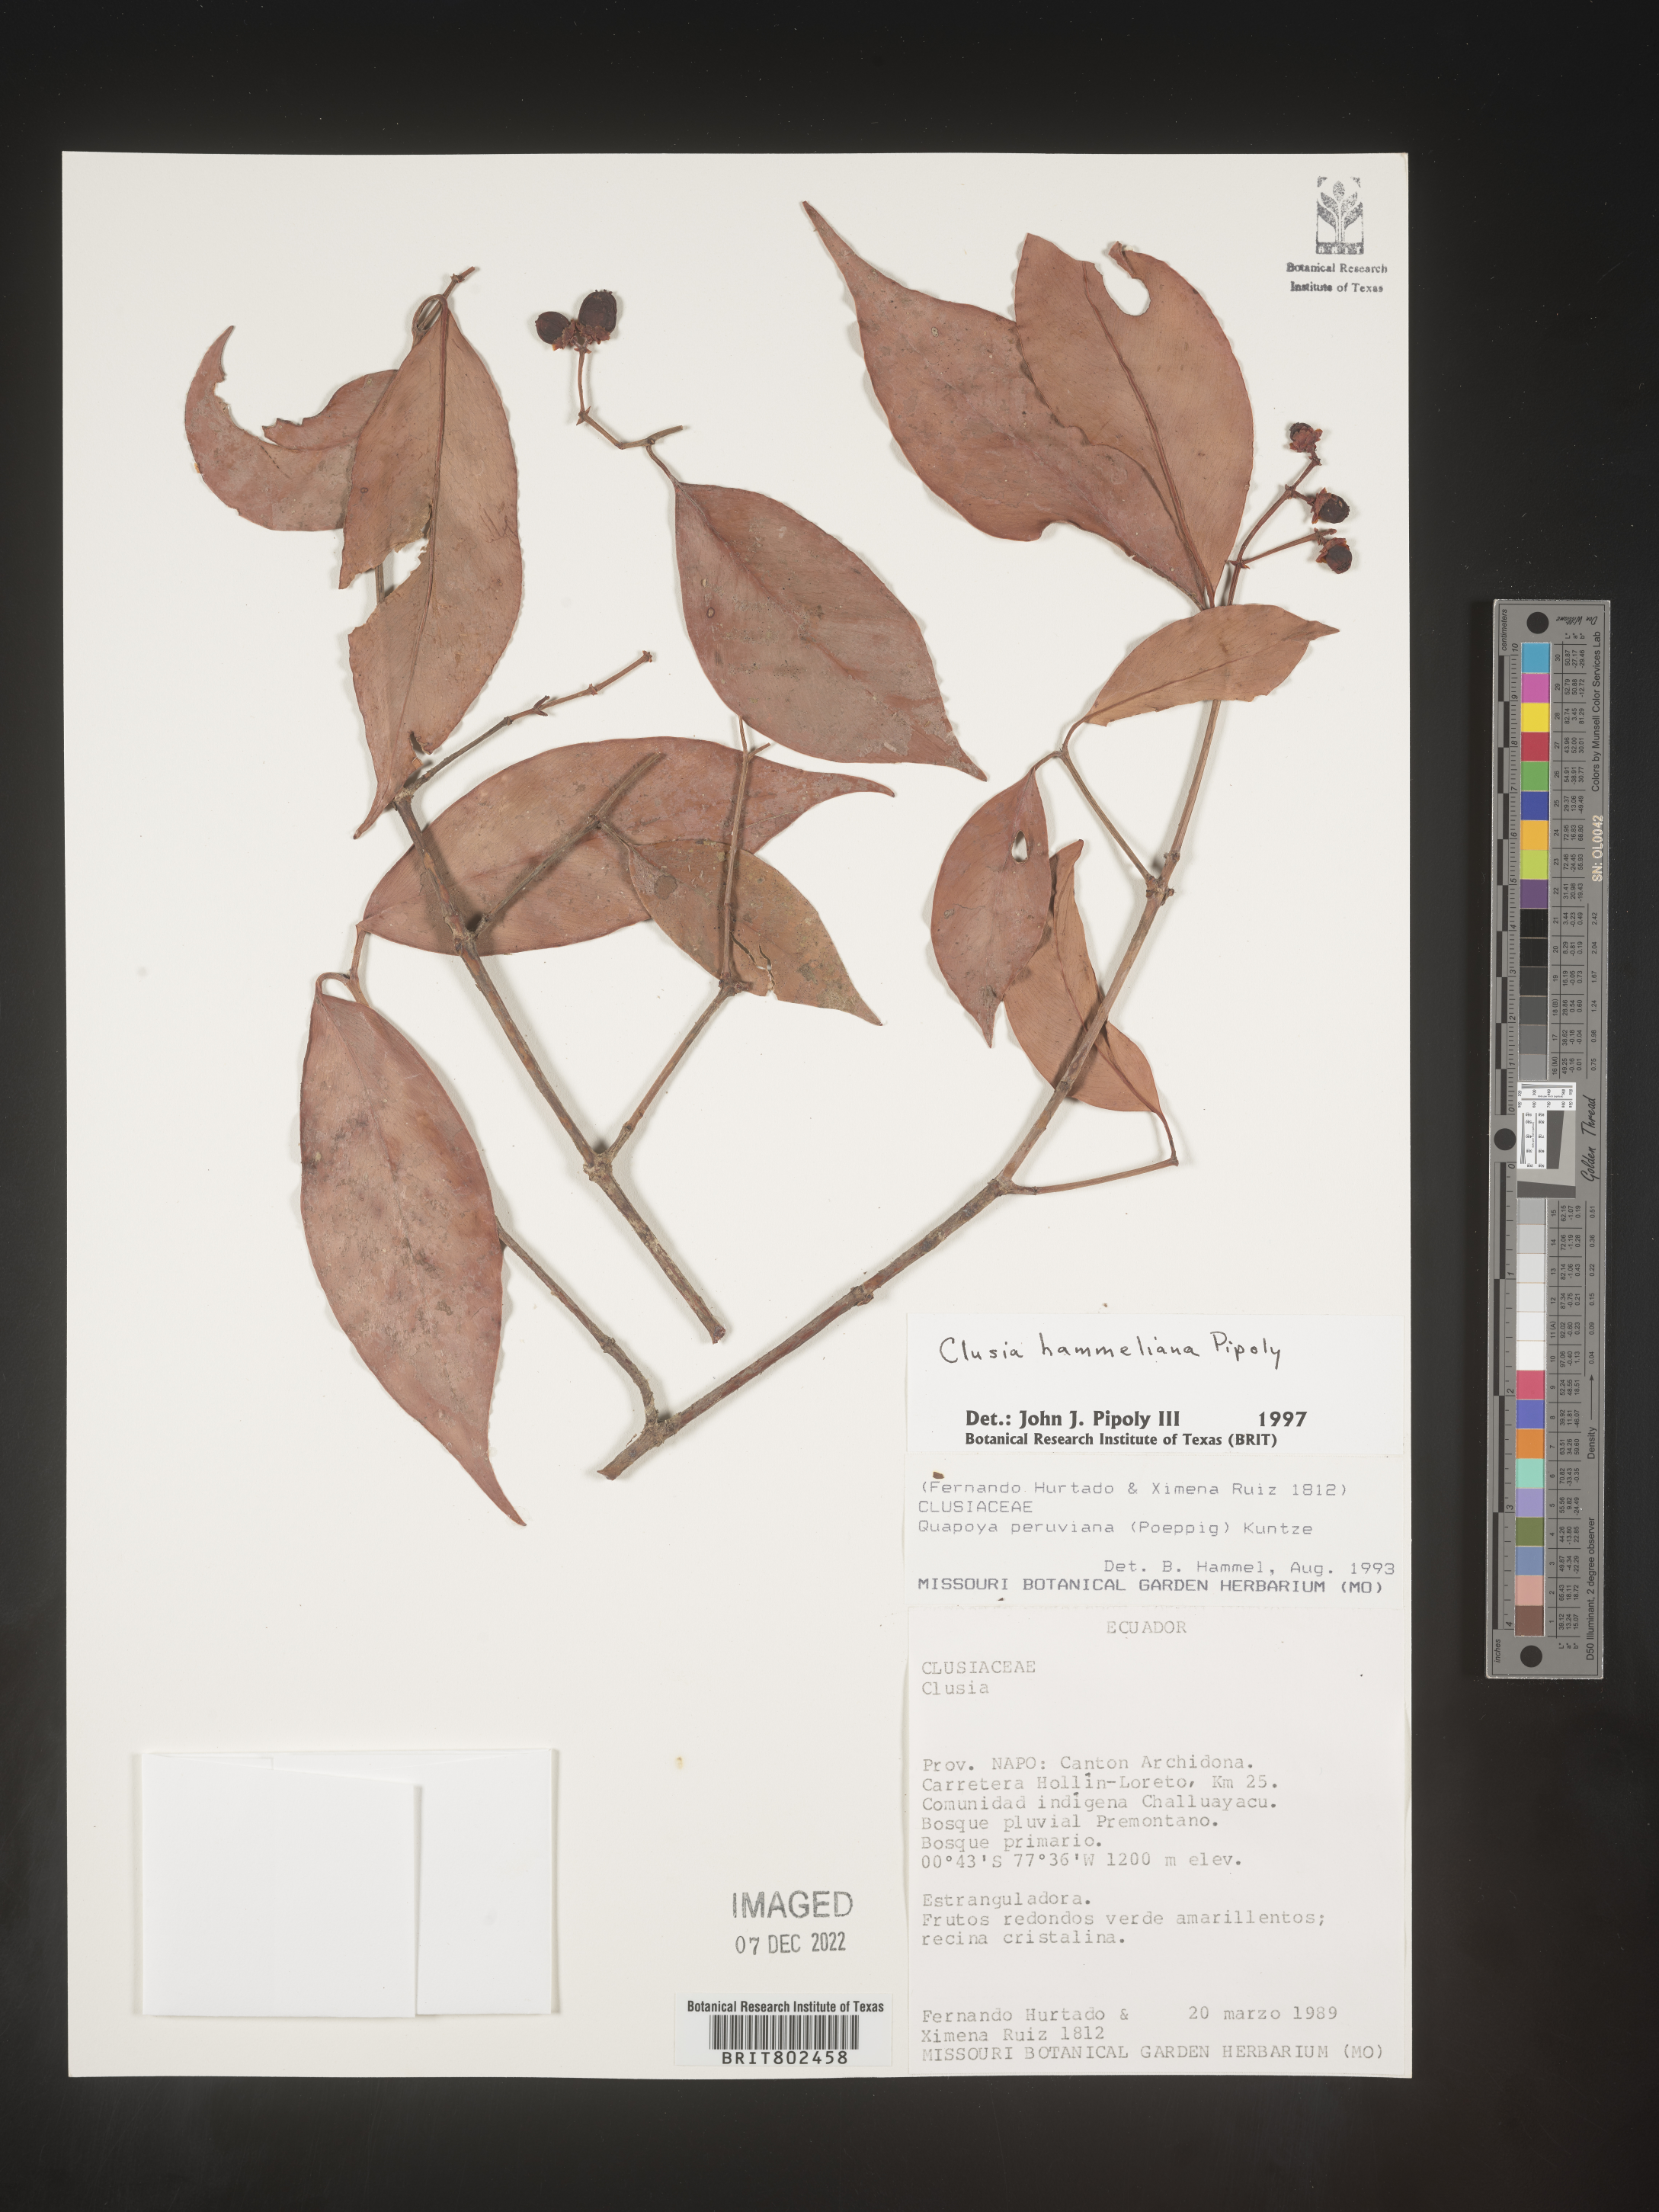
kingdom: Plantae
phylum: Tracheophyta
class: Magnoliopsida
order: Malpighiales
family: Clusiaceae
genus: Clusia
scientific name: Clusia hammeliana
